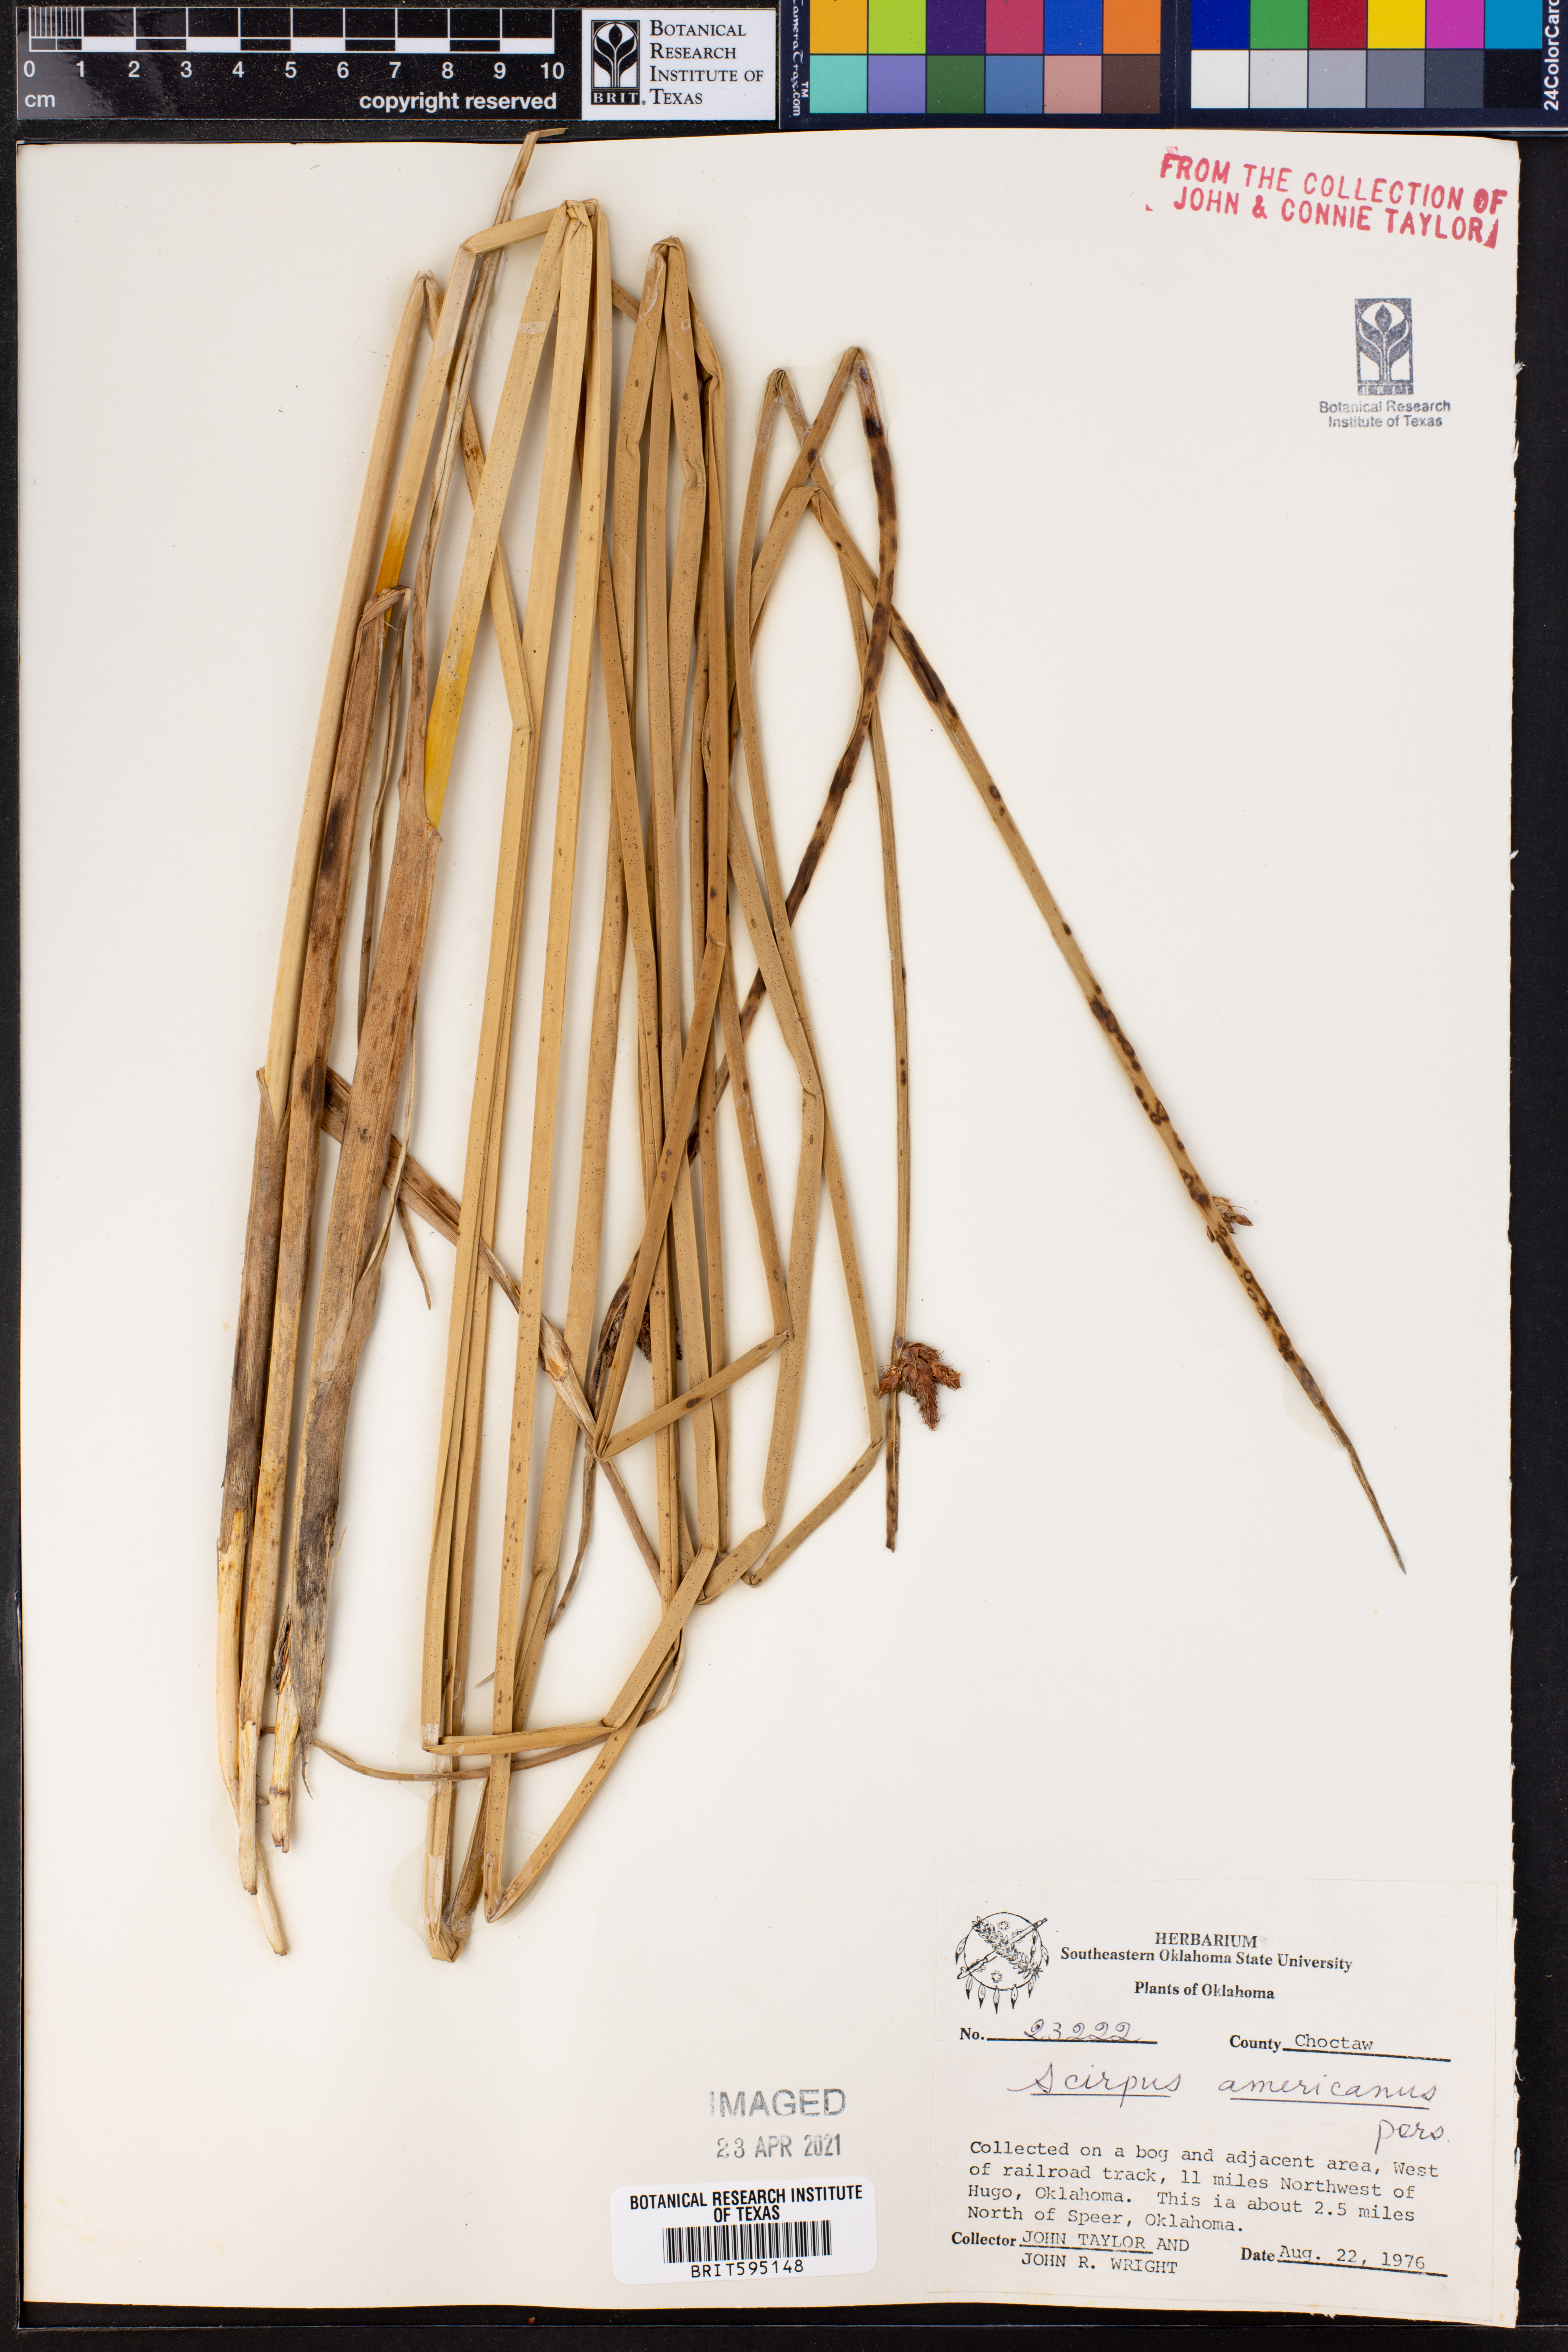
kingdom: Plantae
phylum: Tracheophyta
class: Liliopsida
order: Poales
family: Cyperaceae
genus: Schoenoplectus
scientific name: Schoenoplectus americanus
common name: American three-square bulrush
